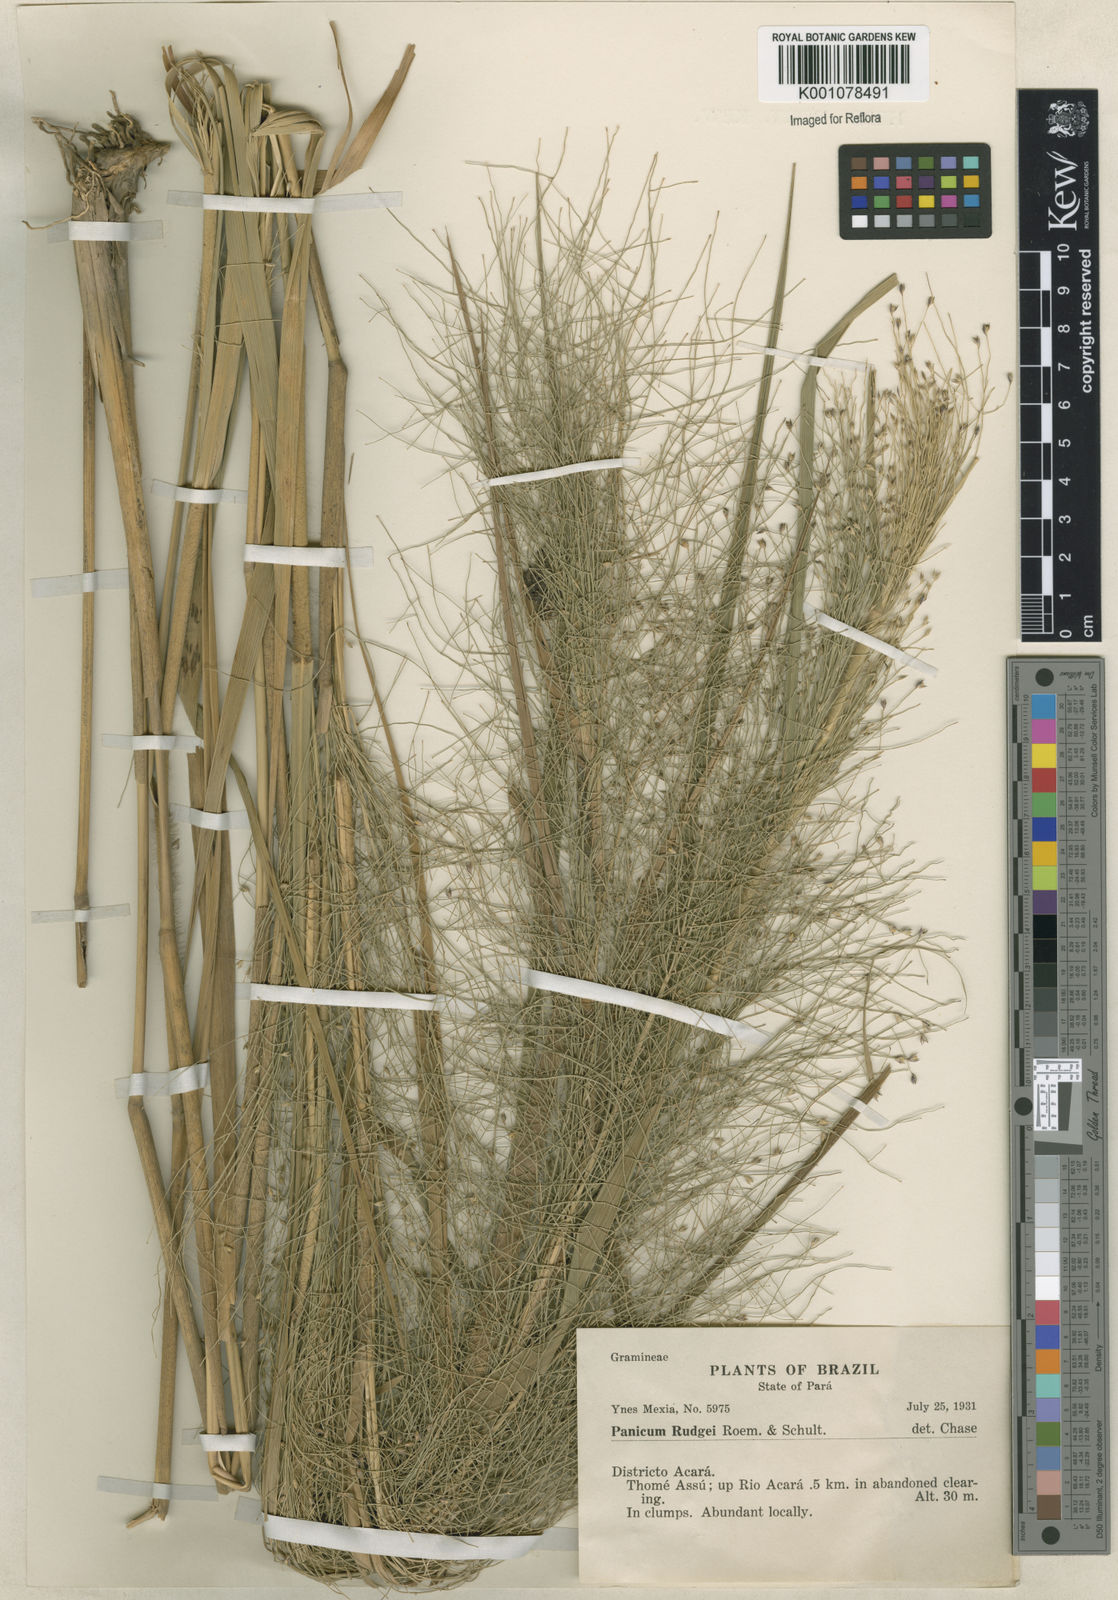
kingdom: Plantae
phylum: Tracheophyta
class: Liliopsida
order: Poales
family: Poaceae
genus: Panicum
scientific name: Panicum rudgei
